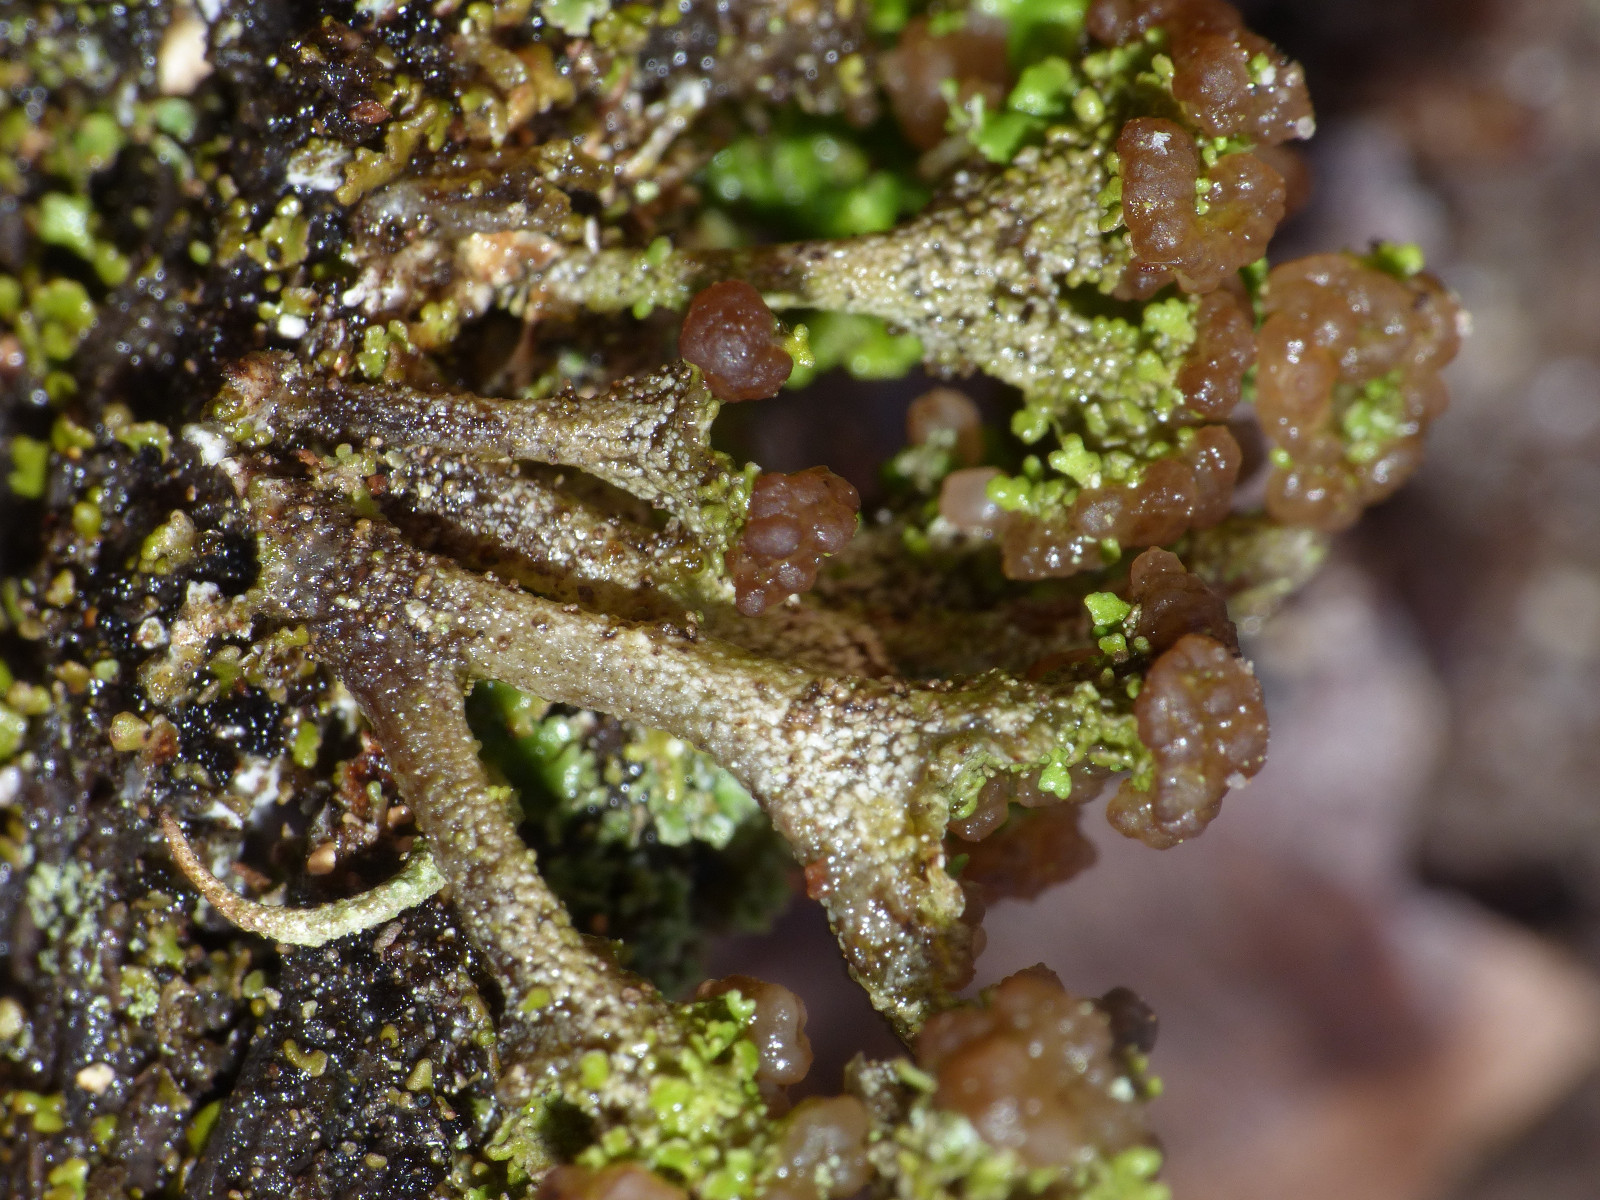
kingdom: Fungi
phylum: Ascomycota
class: Lecanoromycetes
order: Lecanorales
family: Cladoniaceae
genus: Cladonia
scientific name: Cladonia ramulosa
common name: kliddet bægerlav
